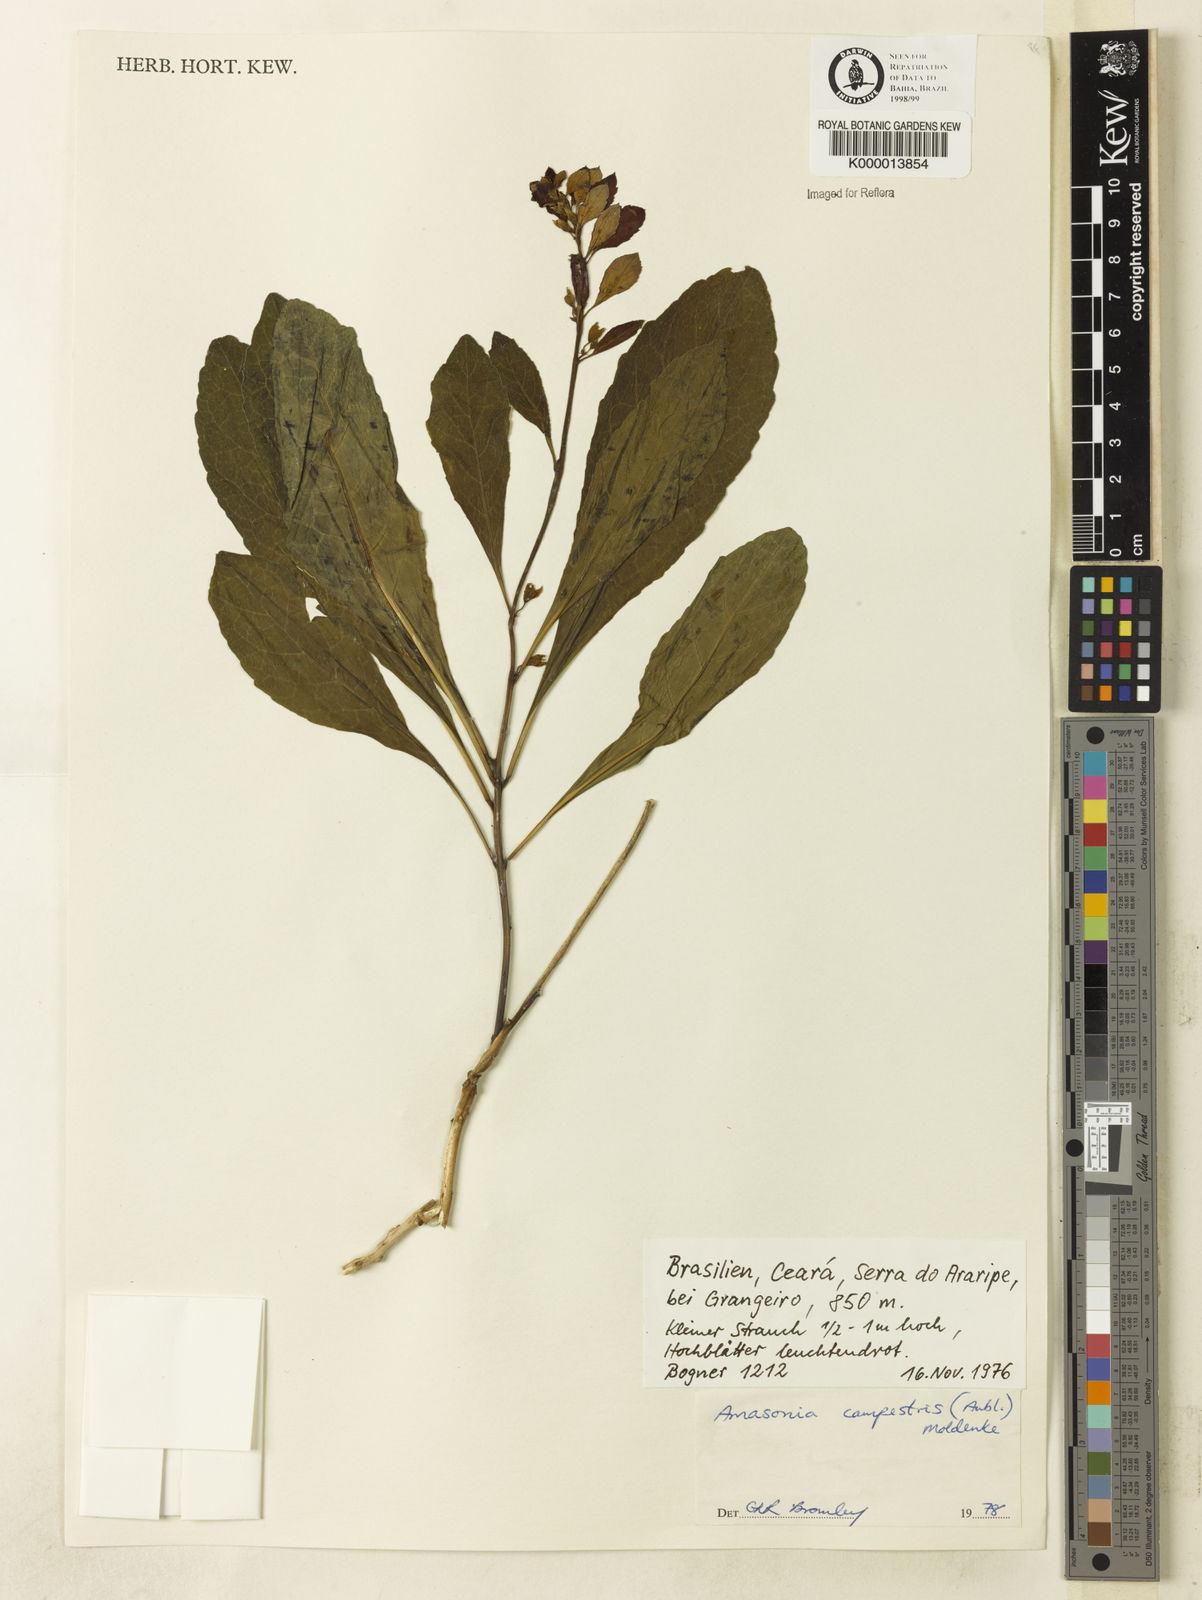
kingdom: Plantae
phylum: Tracheophyta
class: Magnoliopsida
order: Lamiales
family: Lamiaceae
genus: Amasonia
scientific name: Amasonia campestris
